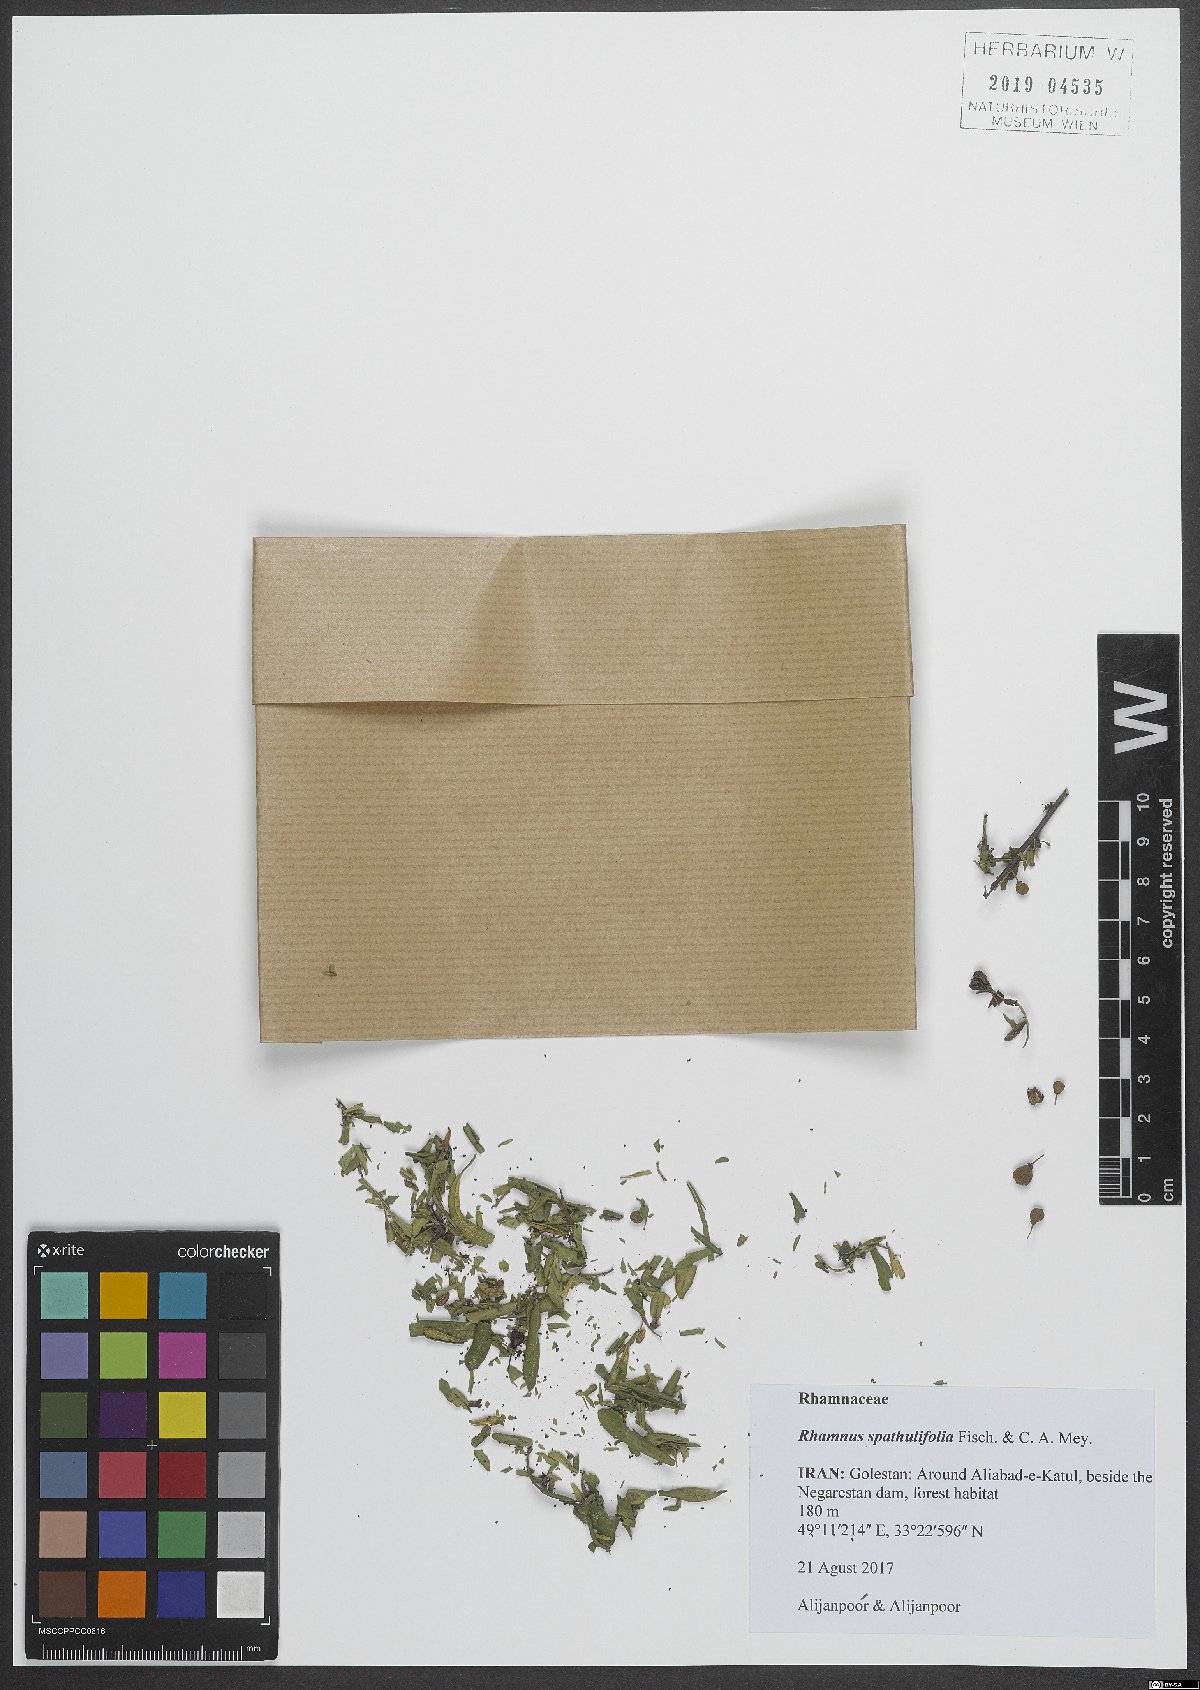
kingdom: Plantae
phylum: Tracheophyta
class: Magnoliopsida
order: Rosales
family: Rhamnaceae
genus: Rhamnus
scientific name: Rhamnus spathulifolia
